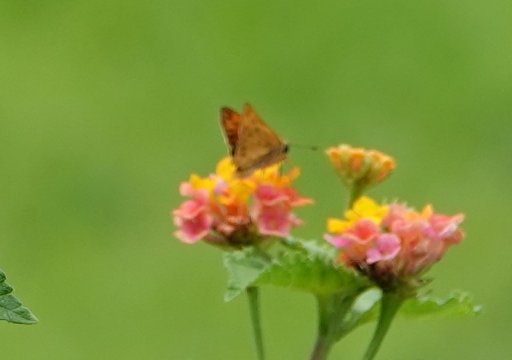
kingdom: Animalia
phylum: Arthropoda
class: Insecta
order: Lepidoptera
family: Hesperiidae
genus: Hylephila
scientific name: Hylephila phyleus
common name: Fiery Skipper
